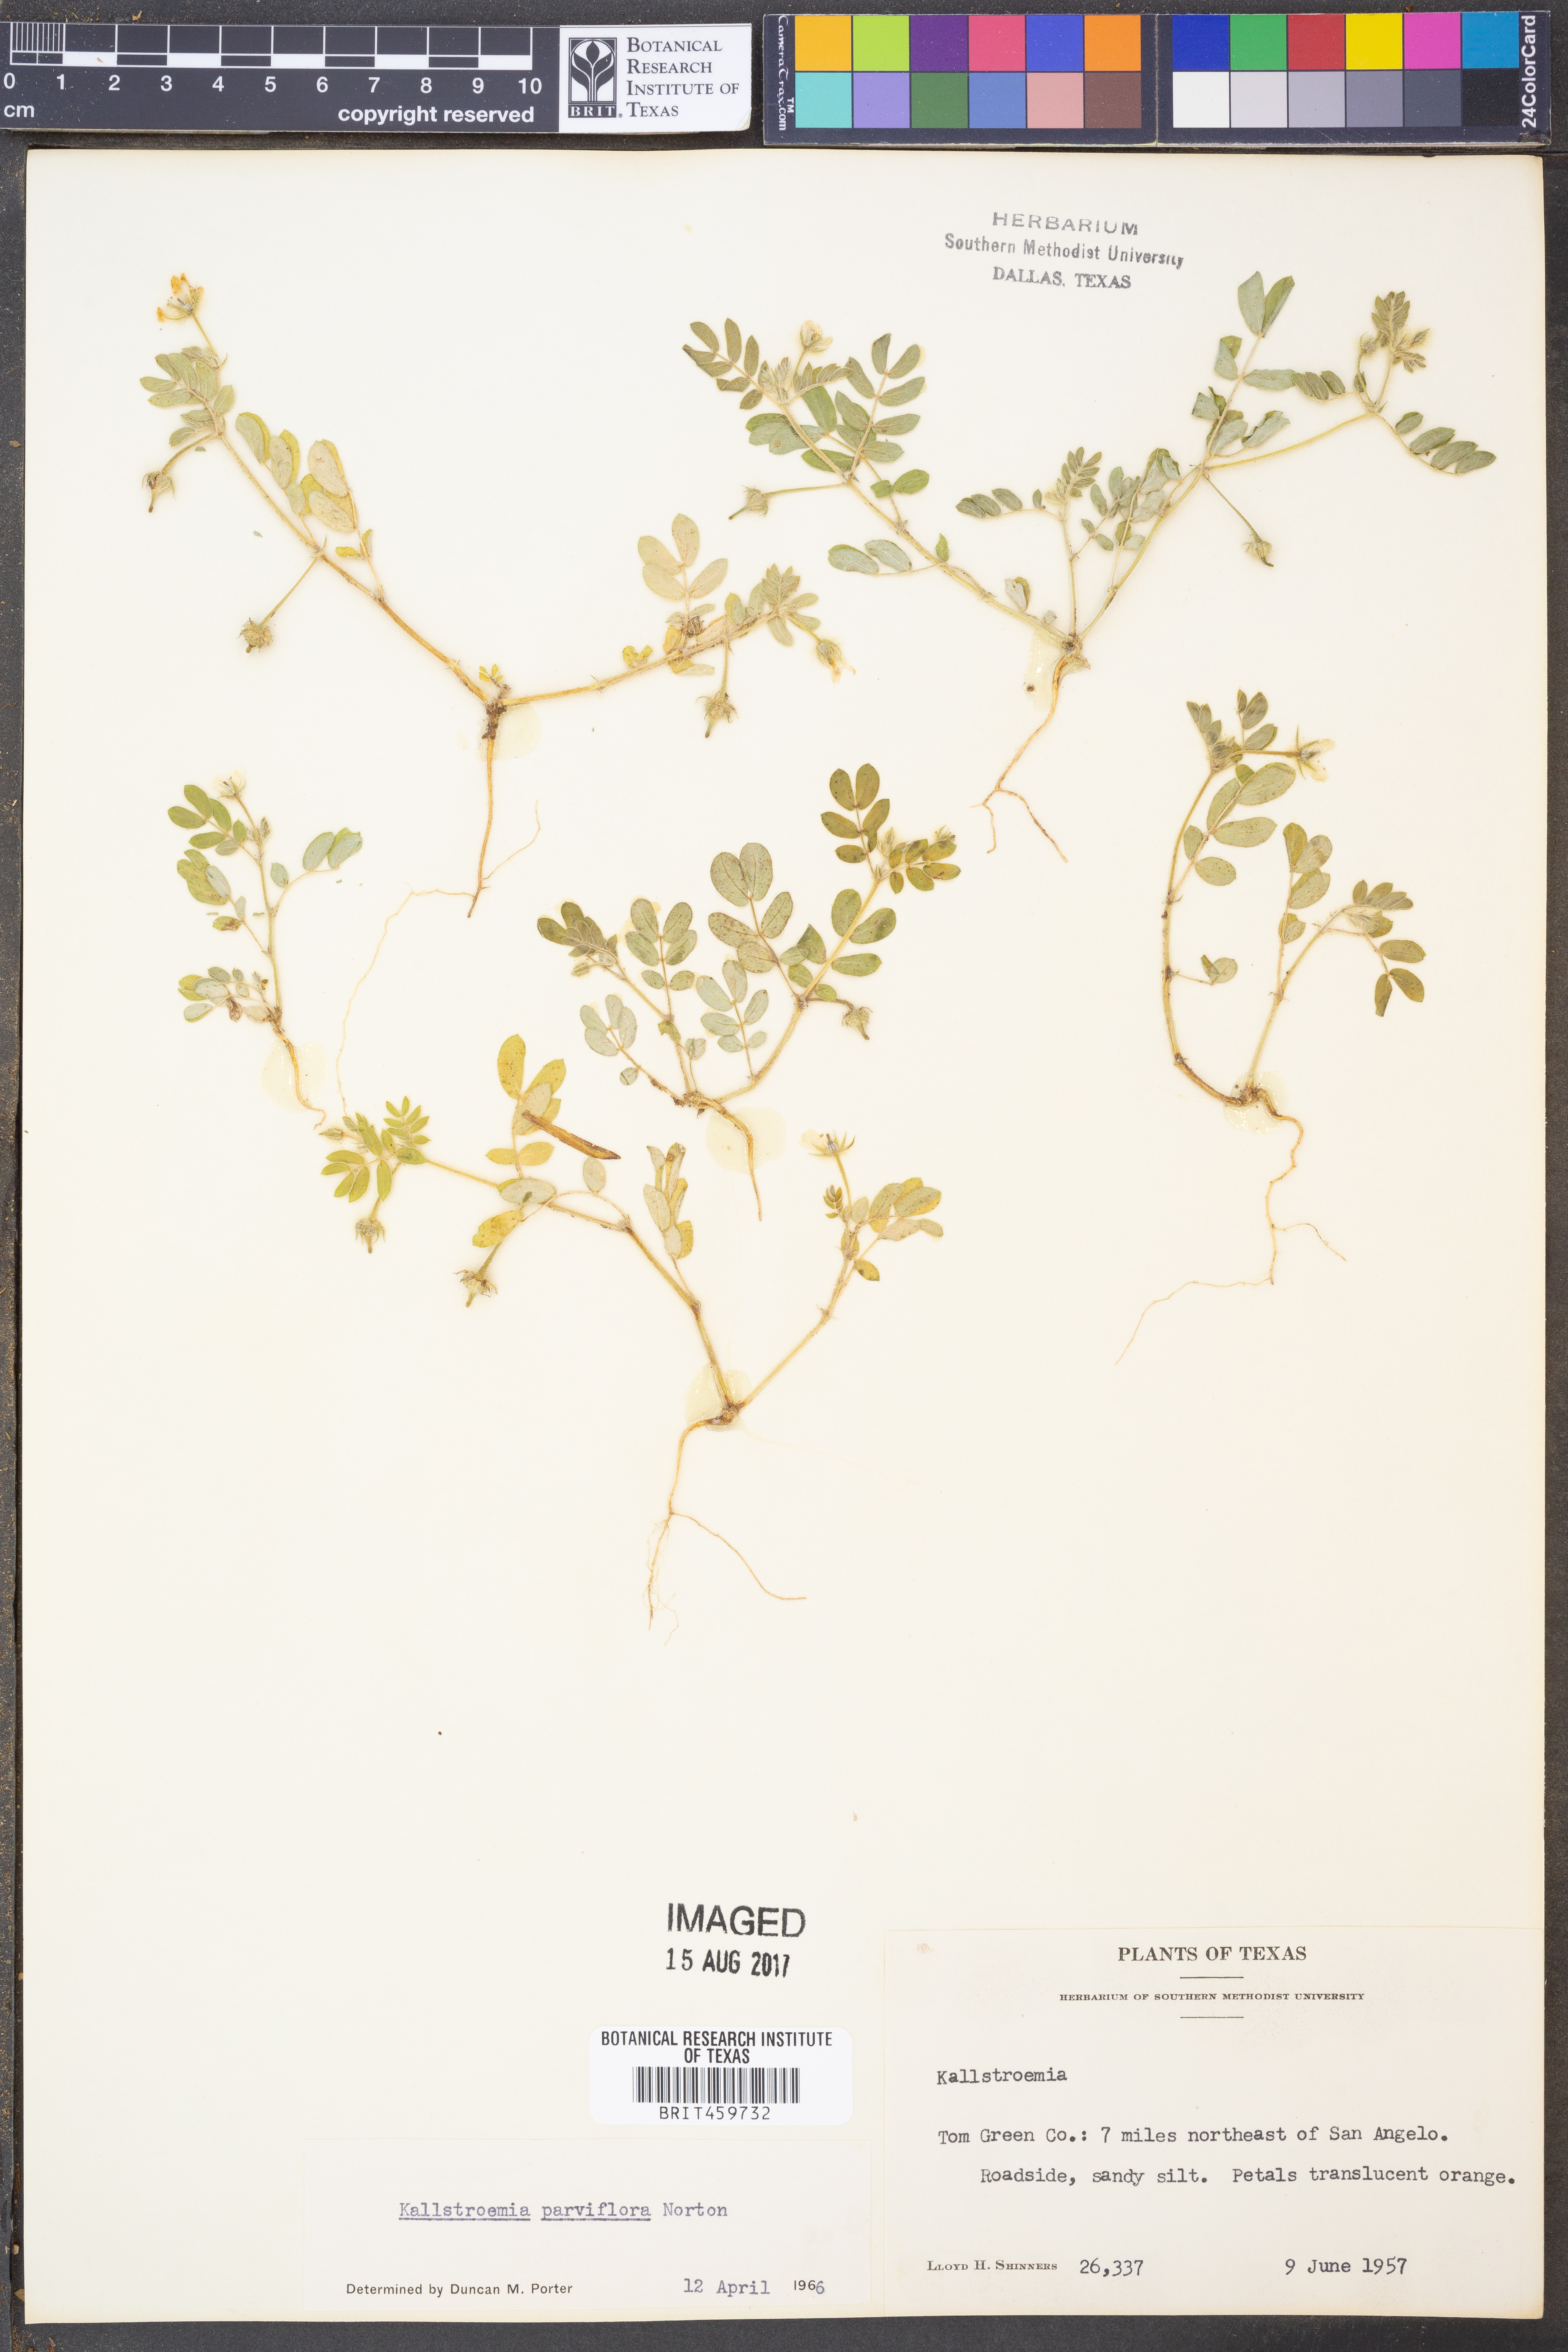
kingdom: Plantae
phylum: Tracheophyta
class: Magnoliopsida
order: Zygophyllales
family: Zygophyllaceae
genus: Kallstroemia
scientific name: Kallstroemia parviflora
